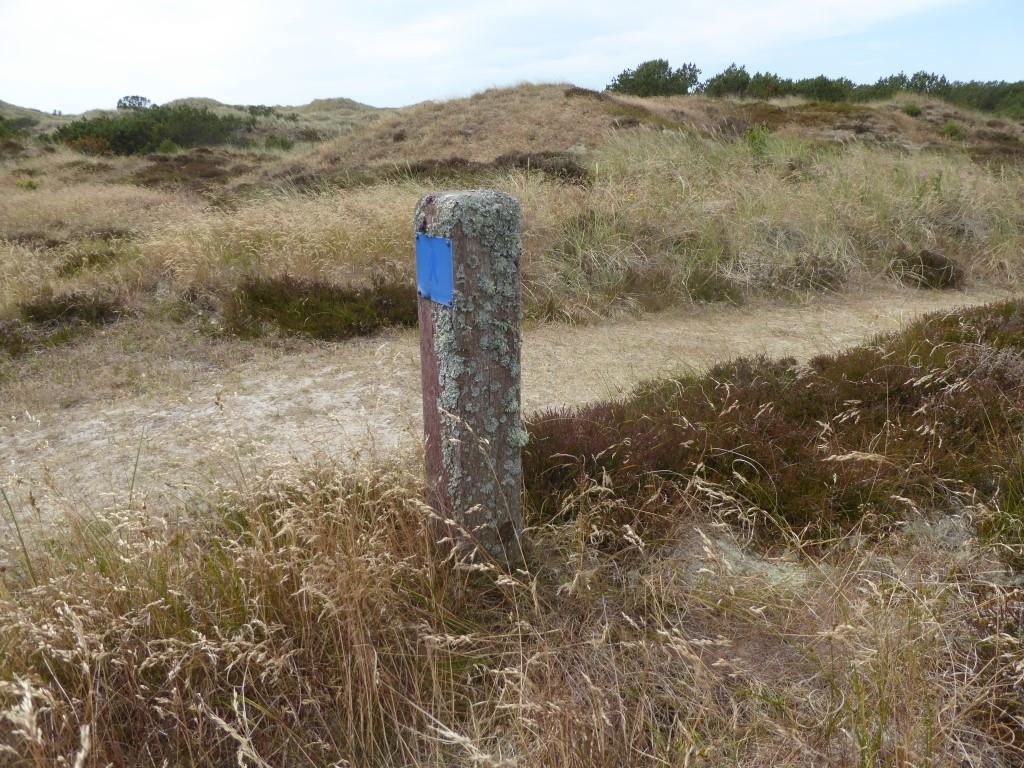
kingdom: Fungi
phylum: Ascomycota
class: Lecanoromycetes
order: Lecanorales
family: Parmeliaceae
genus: Bryoria
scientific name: Bryoria fuscescens
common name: almindelig mankelav
